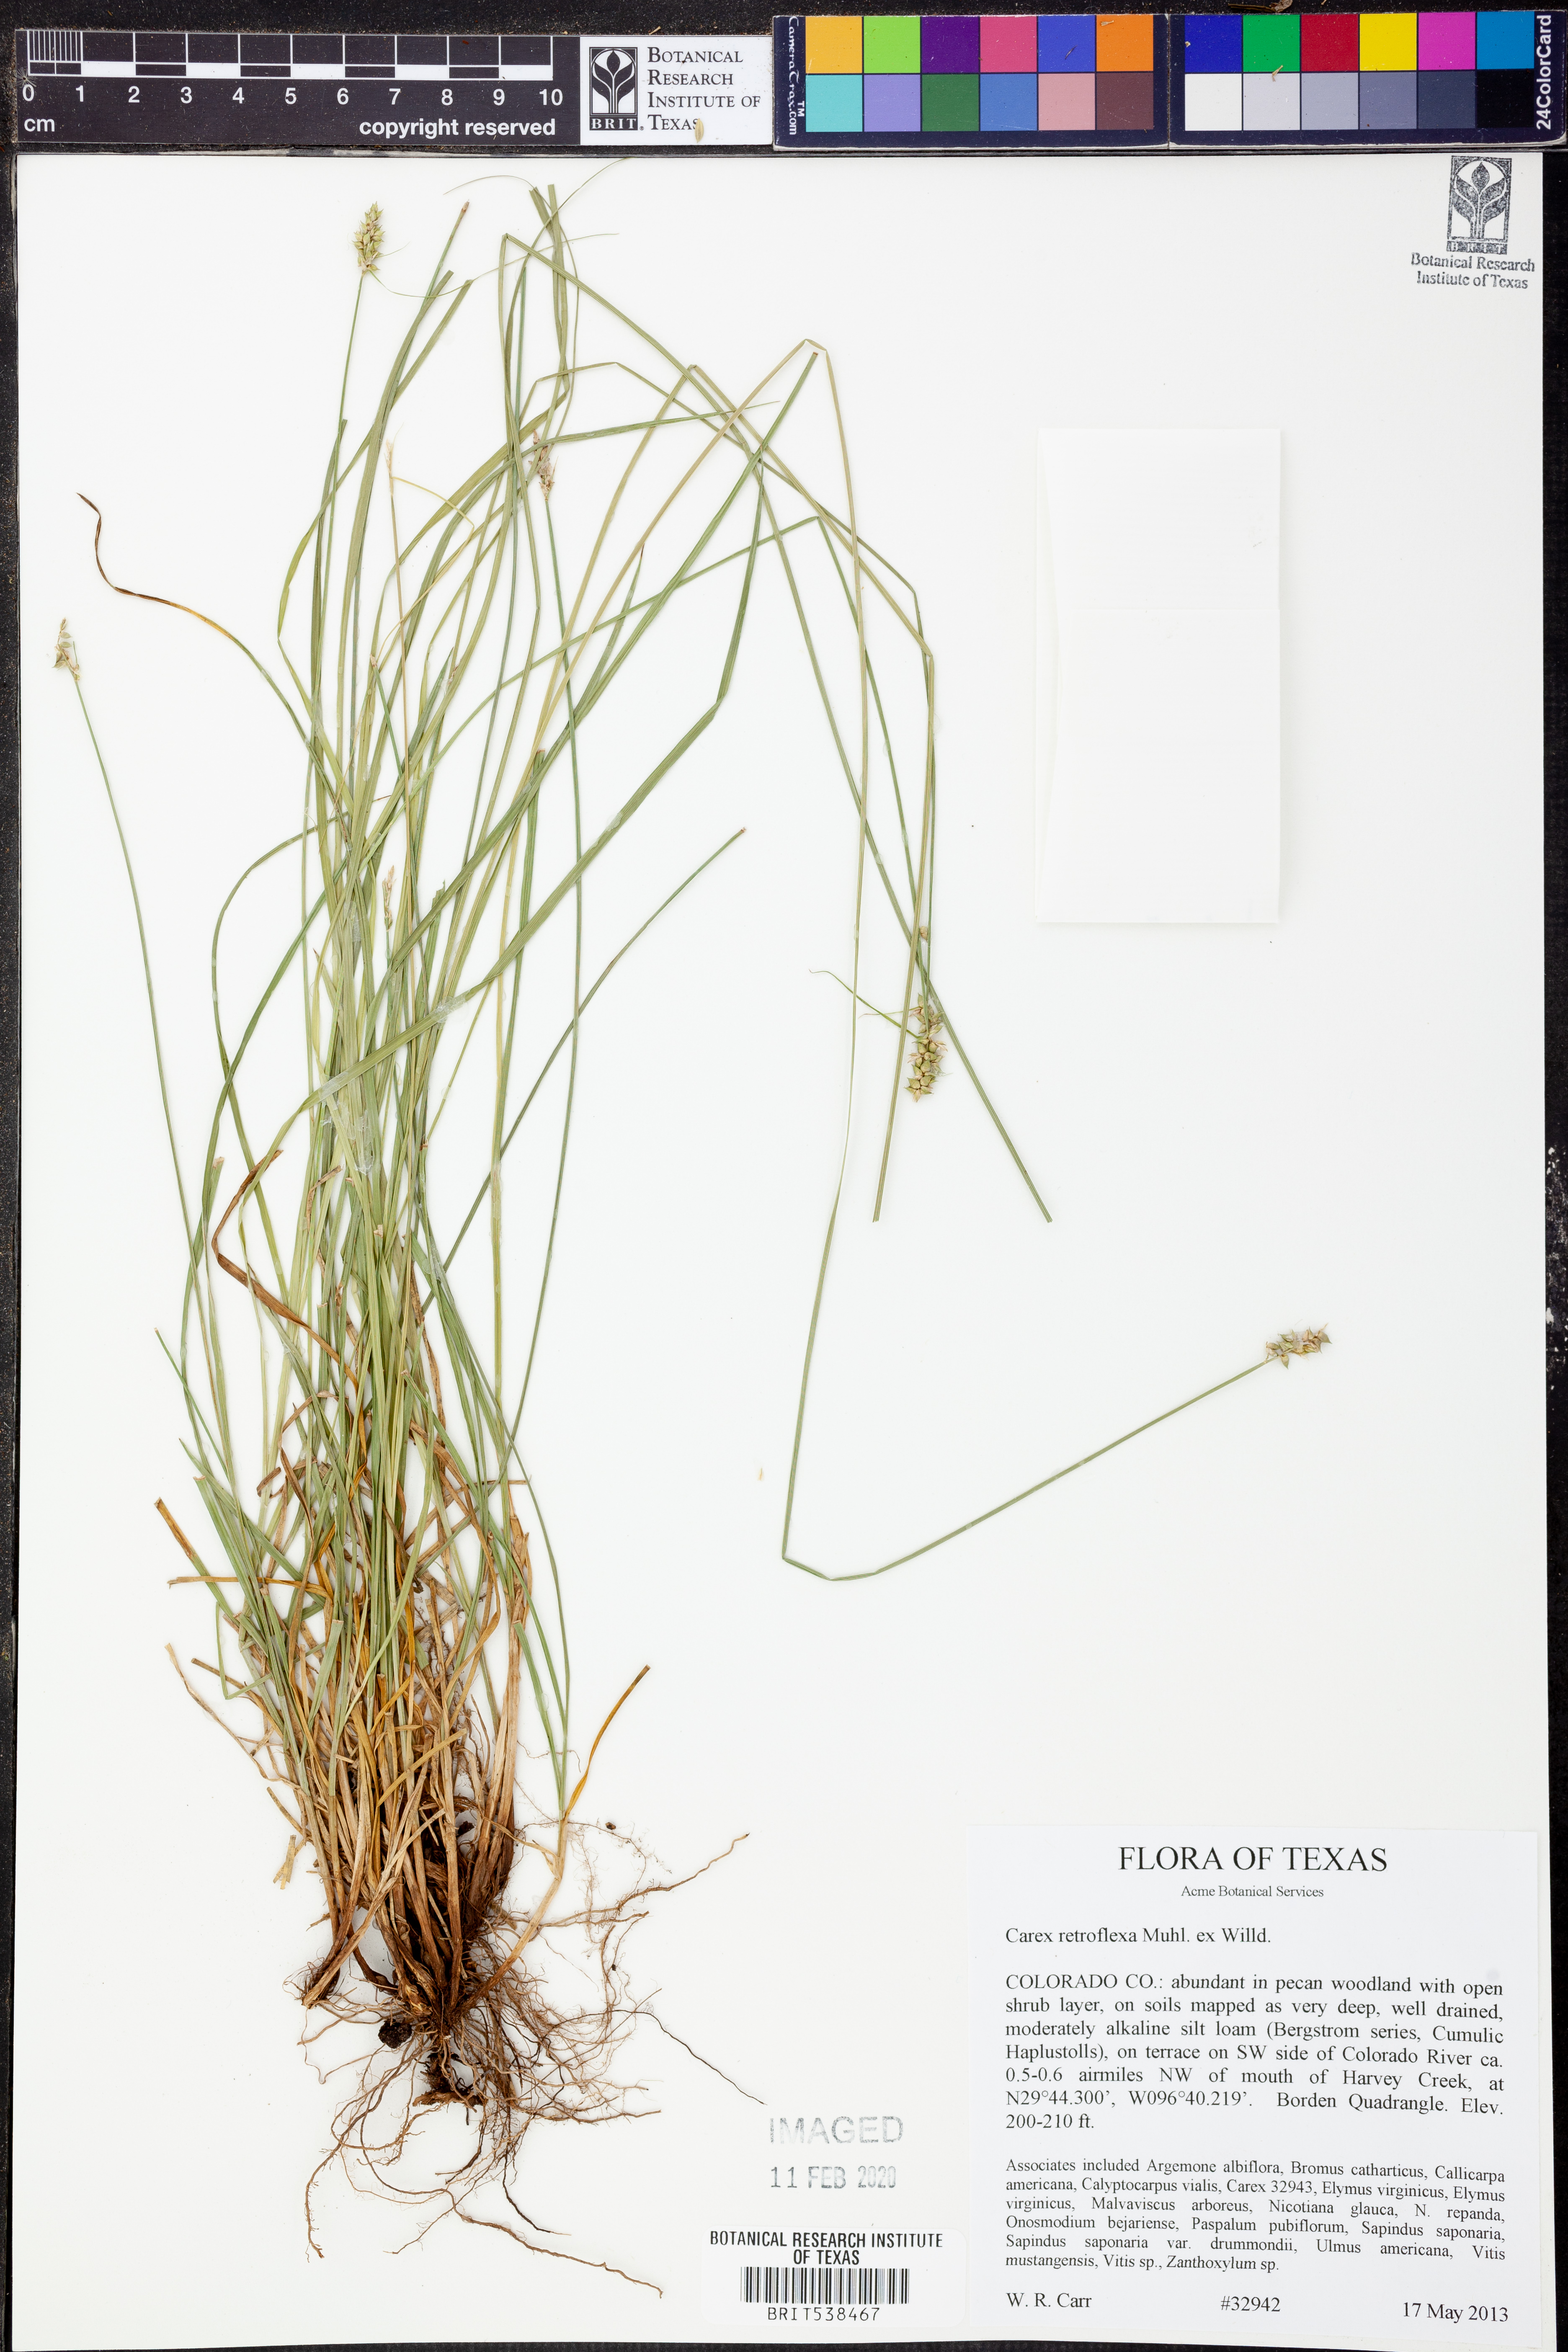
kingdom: Plantae
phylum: Tracheophyta
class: Liliopsida
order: Poales
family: Cyperaceae
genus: Carex
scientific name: Carex retroflexa
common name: Reflexed sedge
